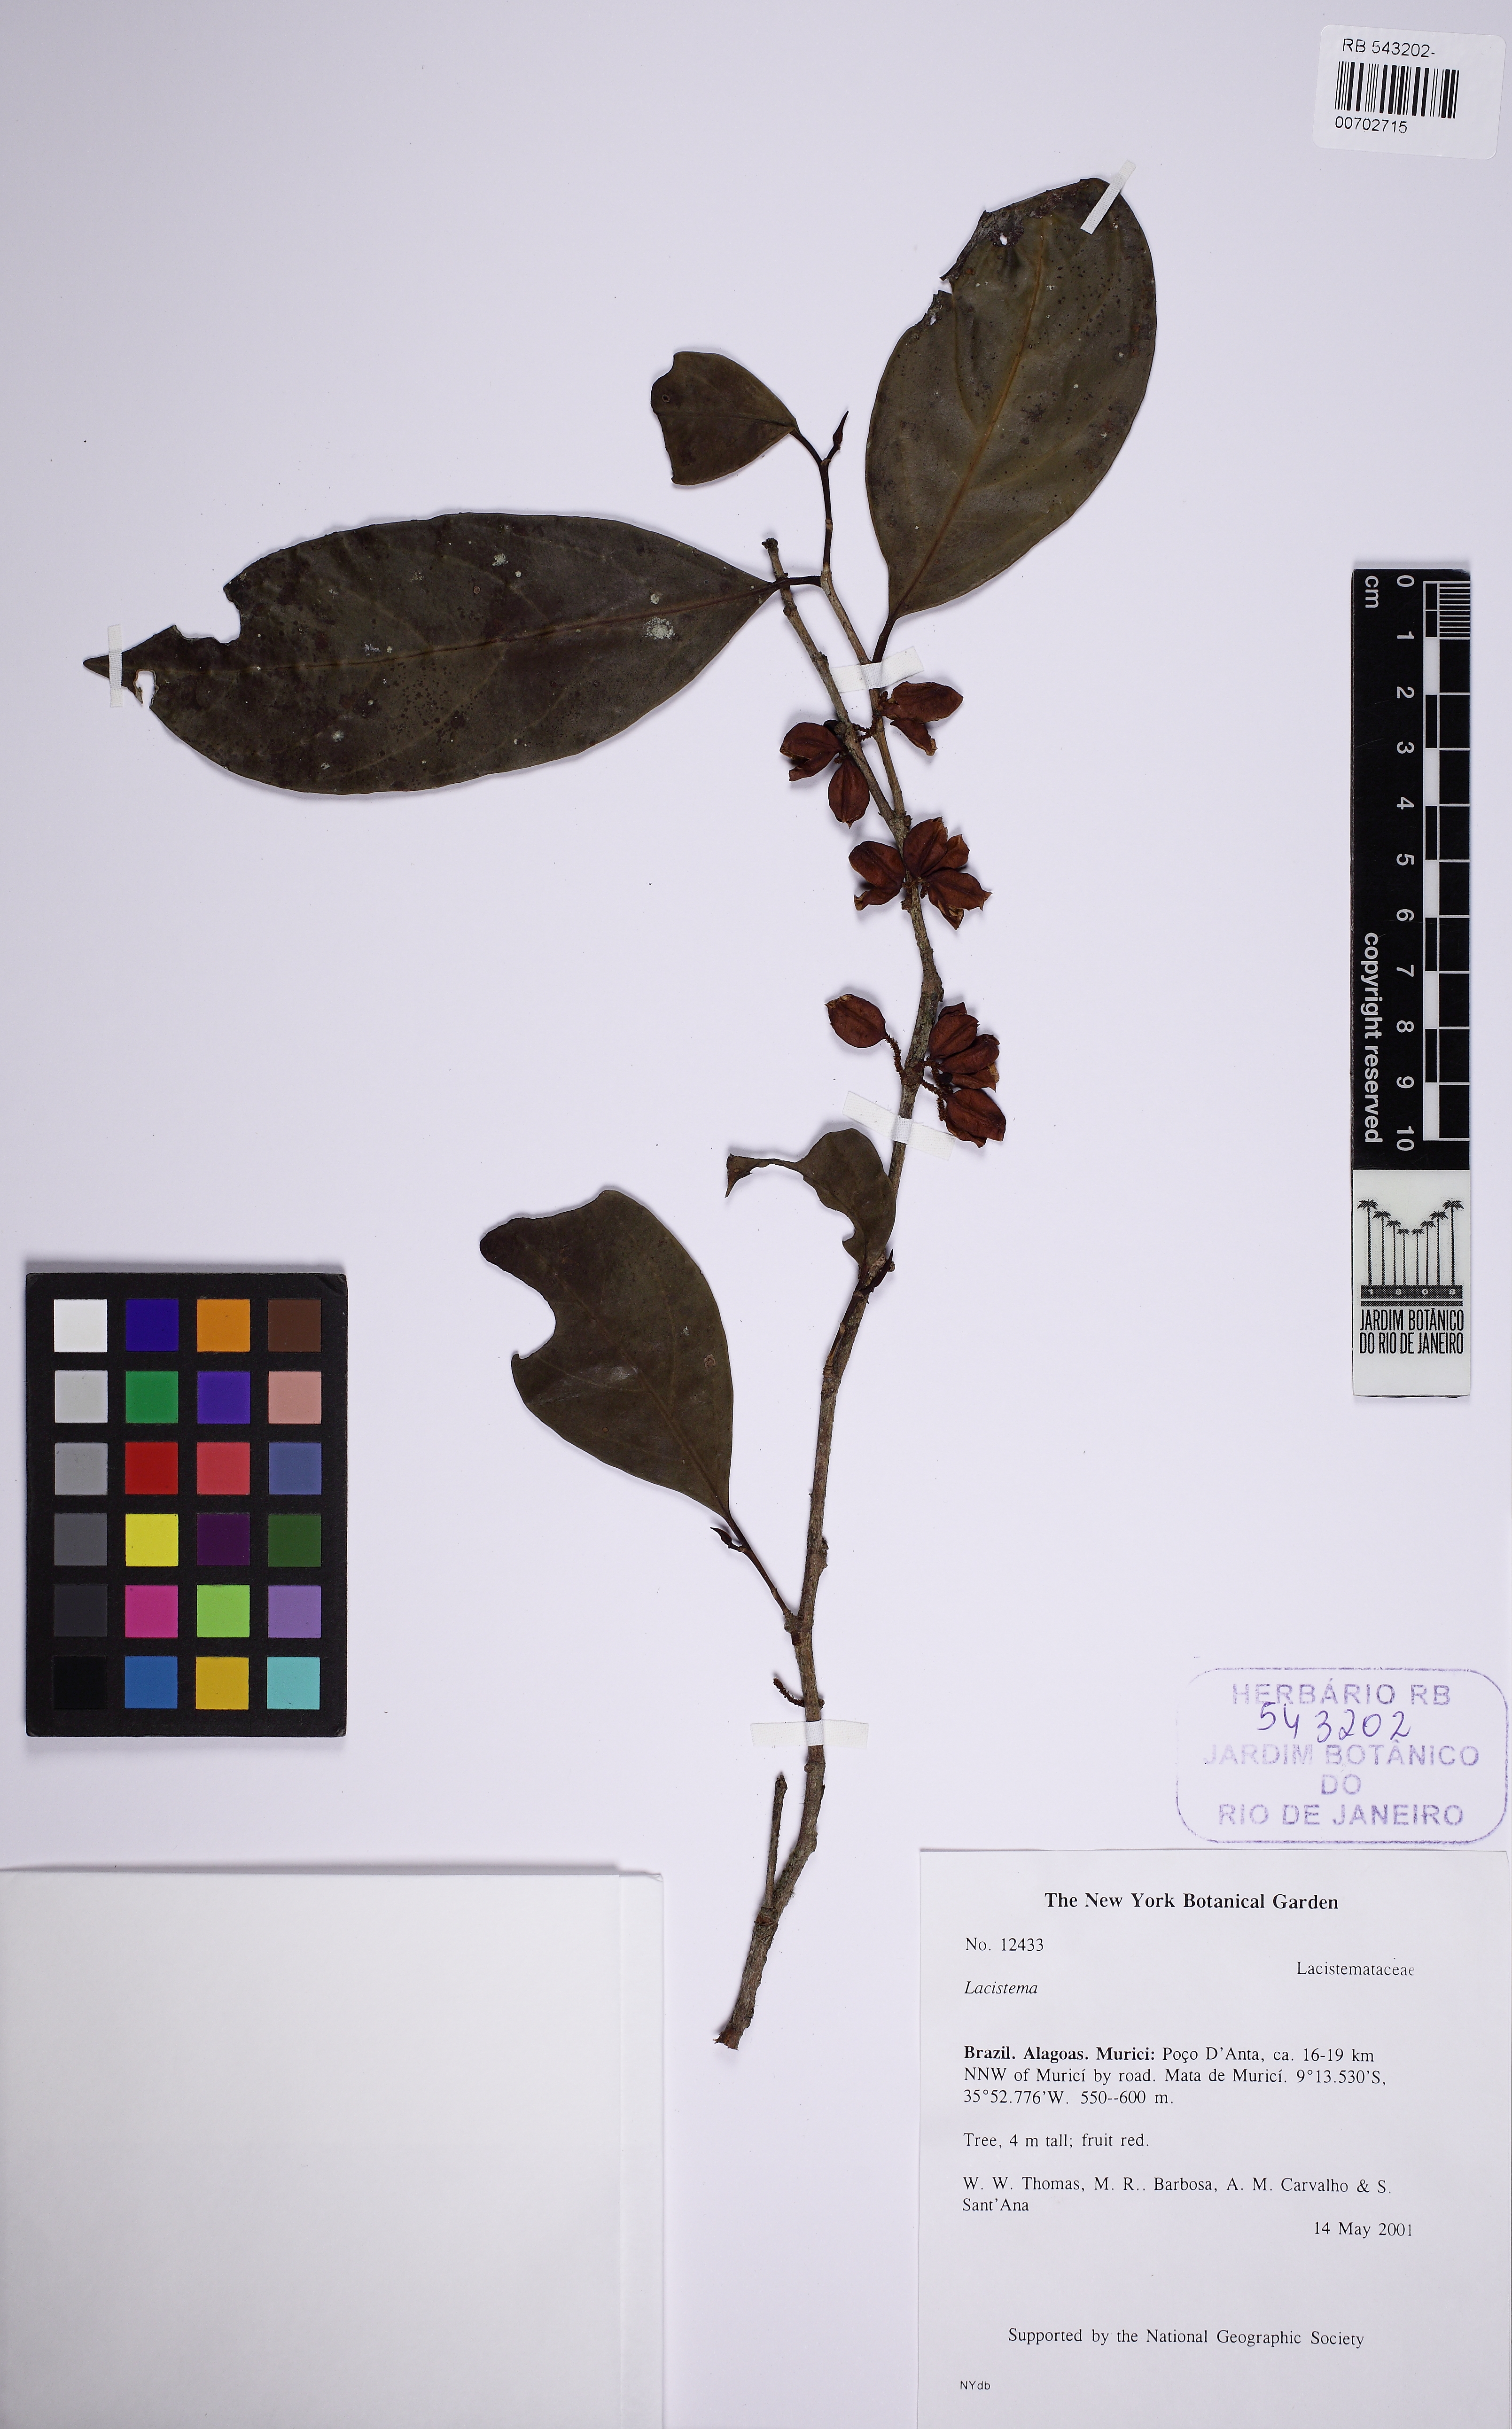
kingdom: Plantae
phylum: Tracheophyta
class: Magnoliopsida
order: Malpighiales
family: Lacistemataceae
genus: Lacistema
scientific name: Lacistema
